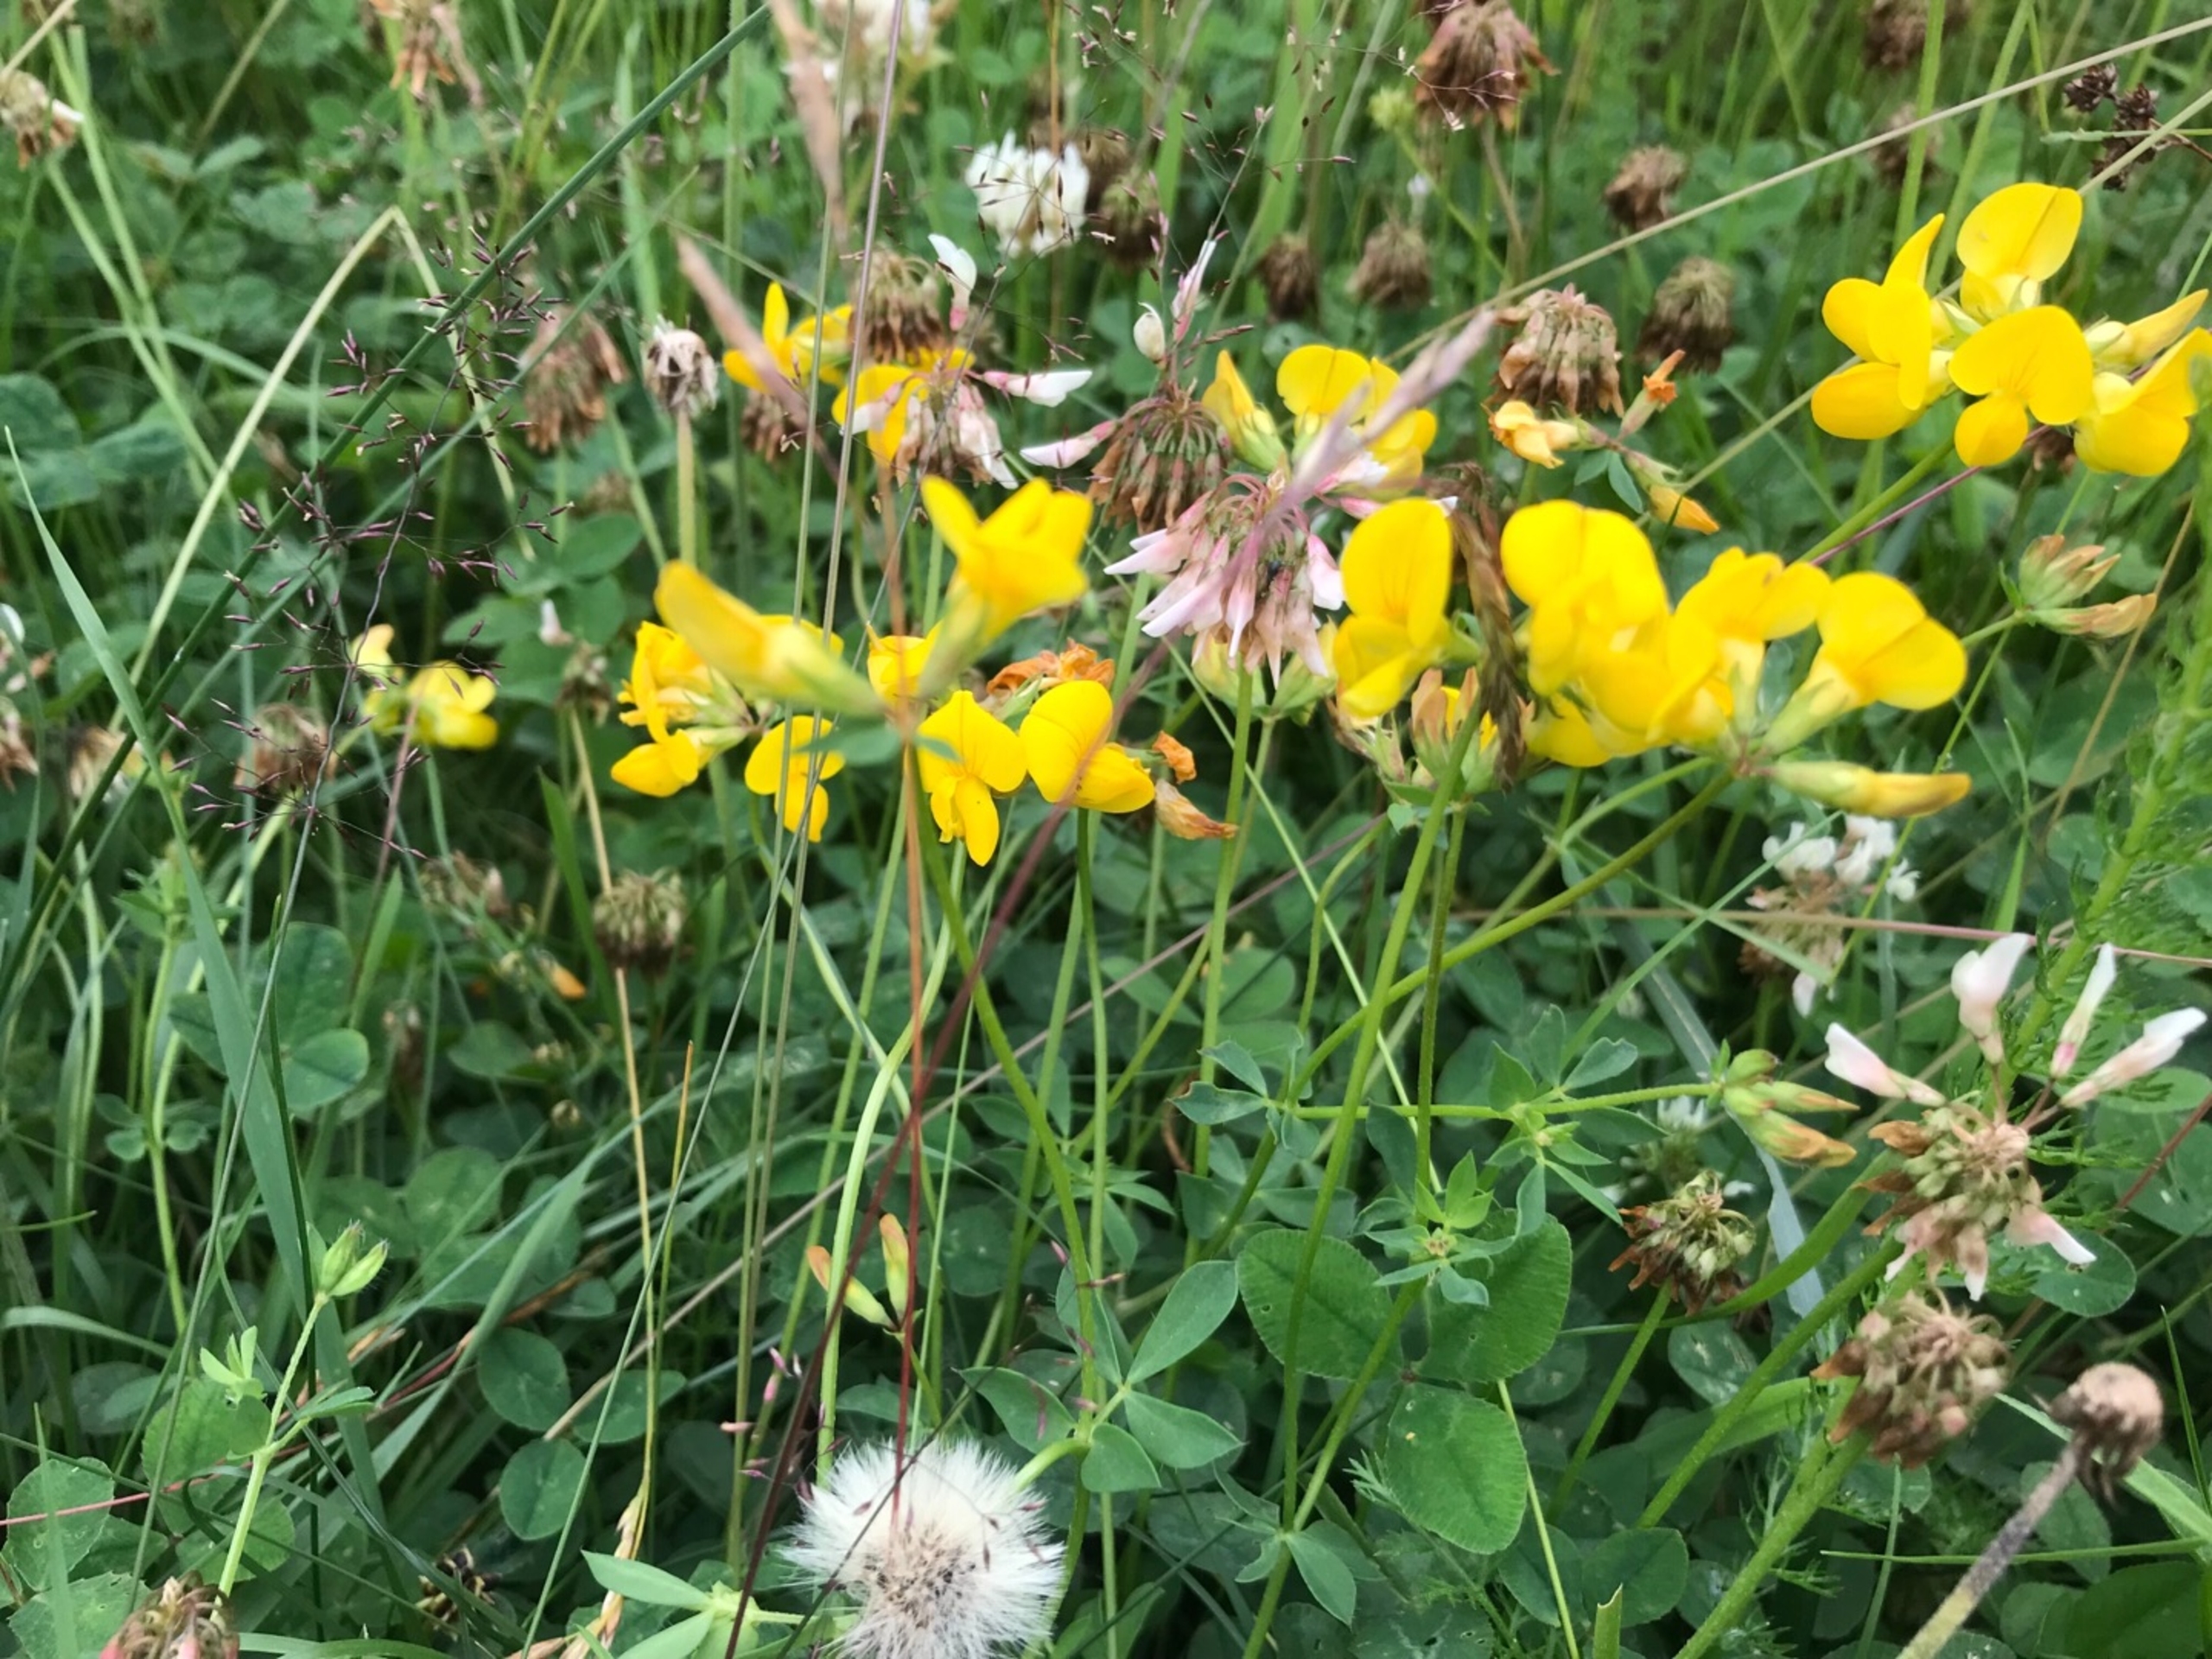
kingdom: Plantae
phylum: Tracheophyta
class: Magnoliopsida
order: Fabales
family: Fabaceae
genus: Lotus
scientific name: Lotus corniculatus
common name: Almindelig kællingetand
